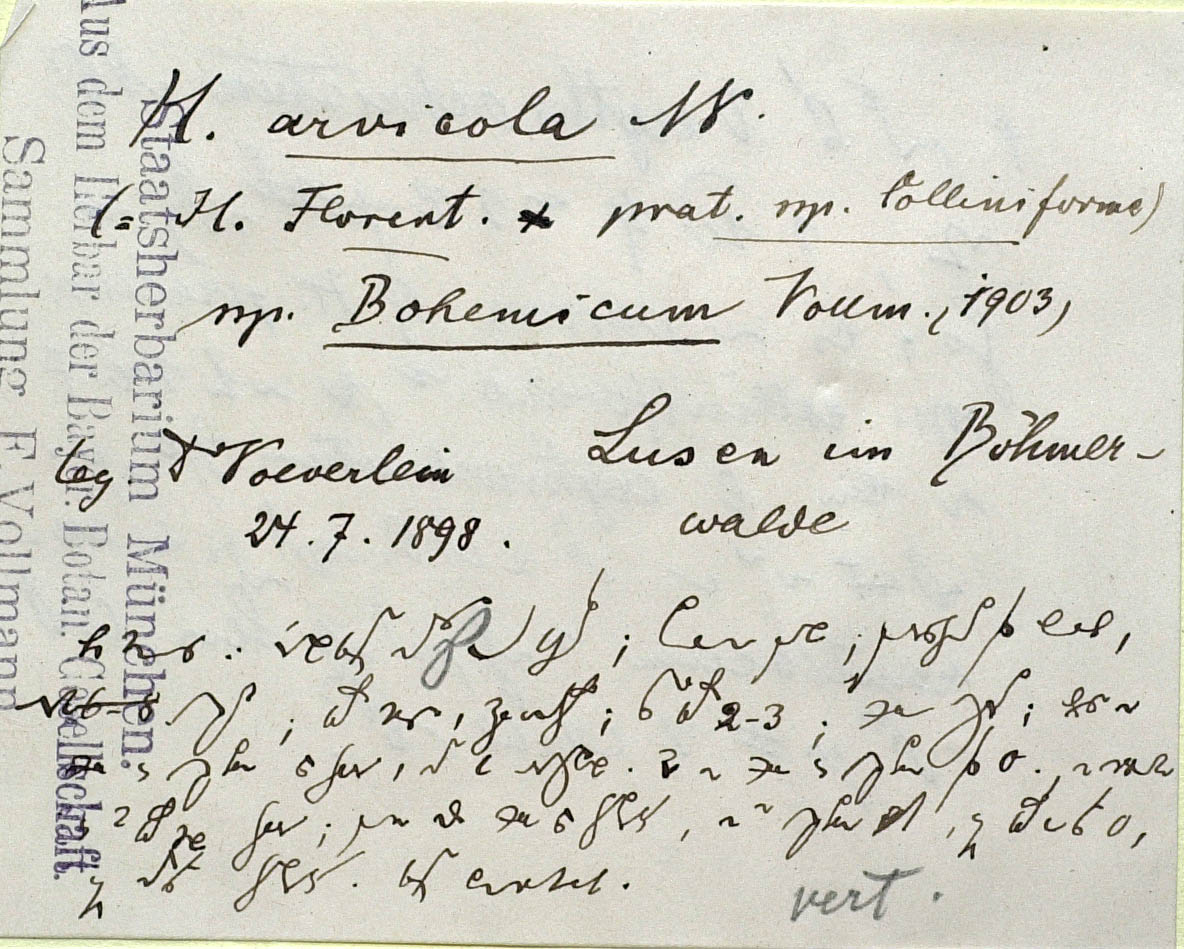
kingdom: Plantae
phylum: Tracheophyta
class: Magnoliopsida
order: Asterales
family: Asteraceae
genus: Pilosella
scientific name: Pilosella scandinavica
